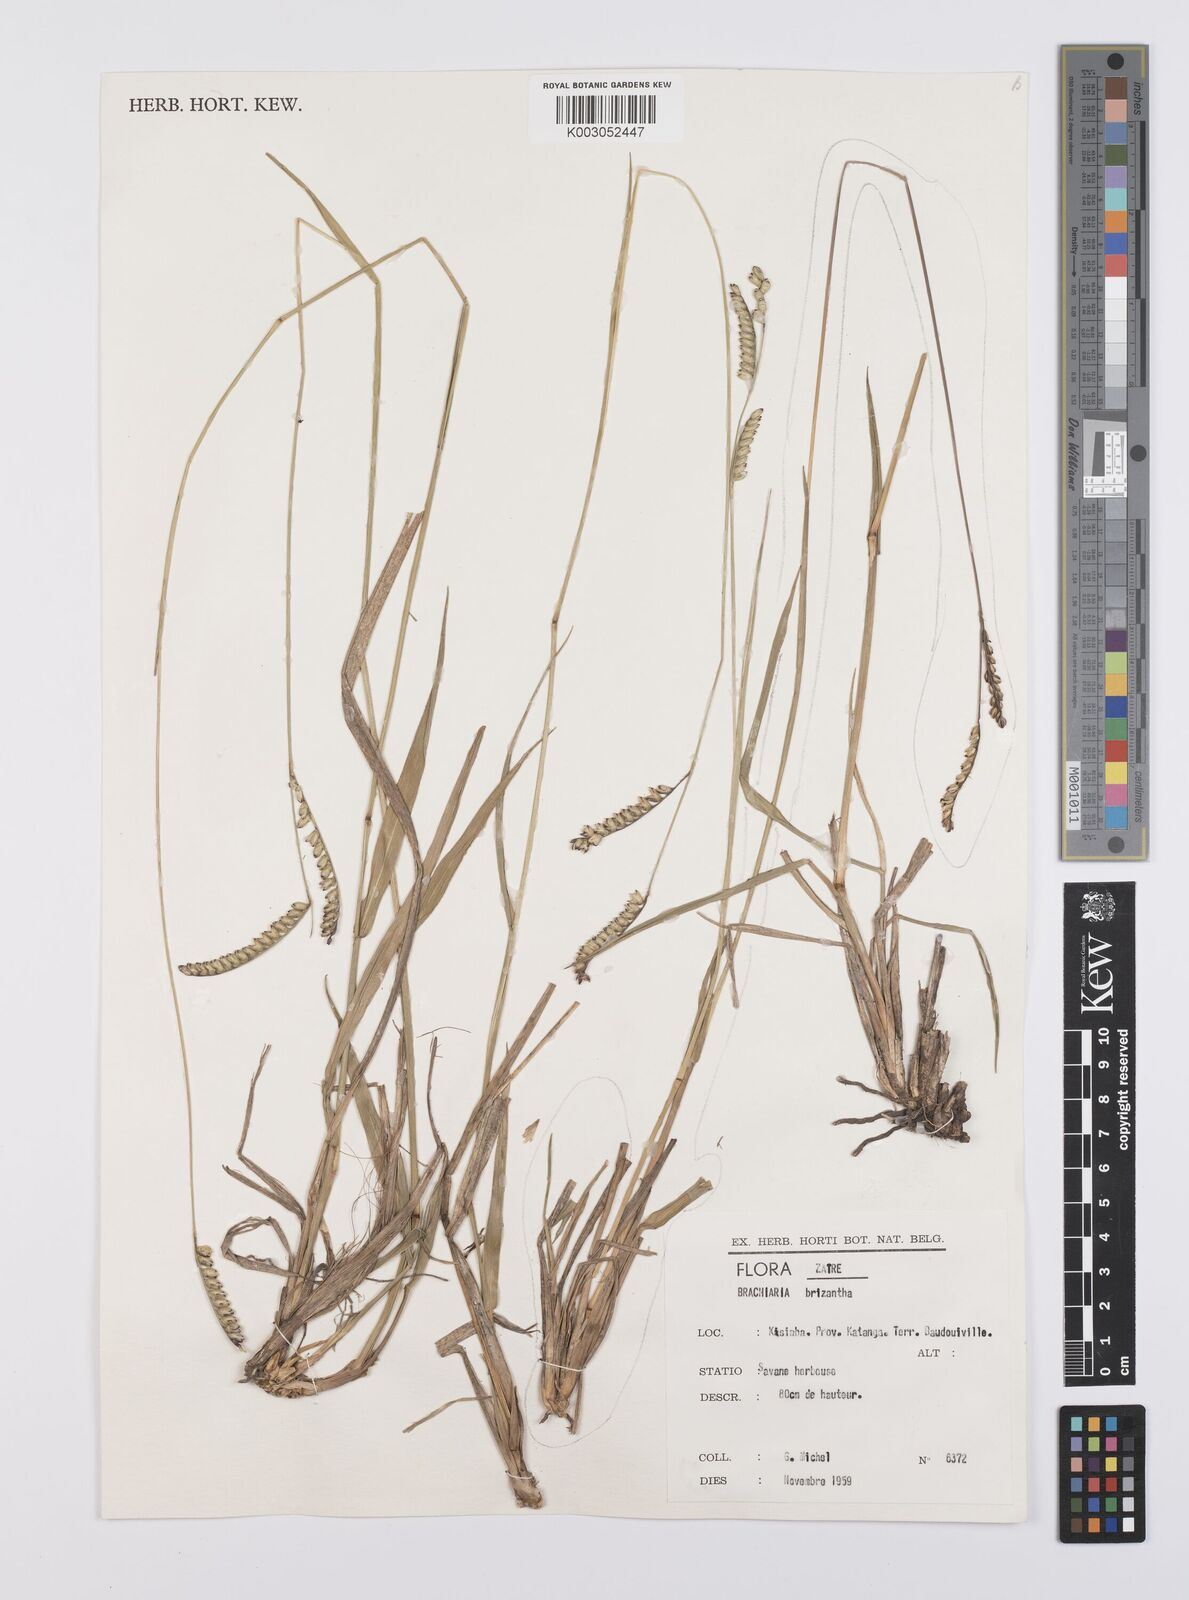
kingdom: Plantae
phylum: Tracheophyta
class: Liliopsida
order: Poales
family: Poaceae
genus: Urochloa
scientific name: Urochloa brizantha
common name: Palisade signalgrass
